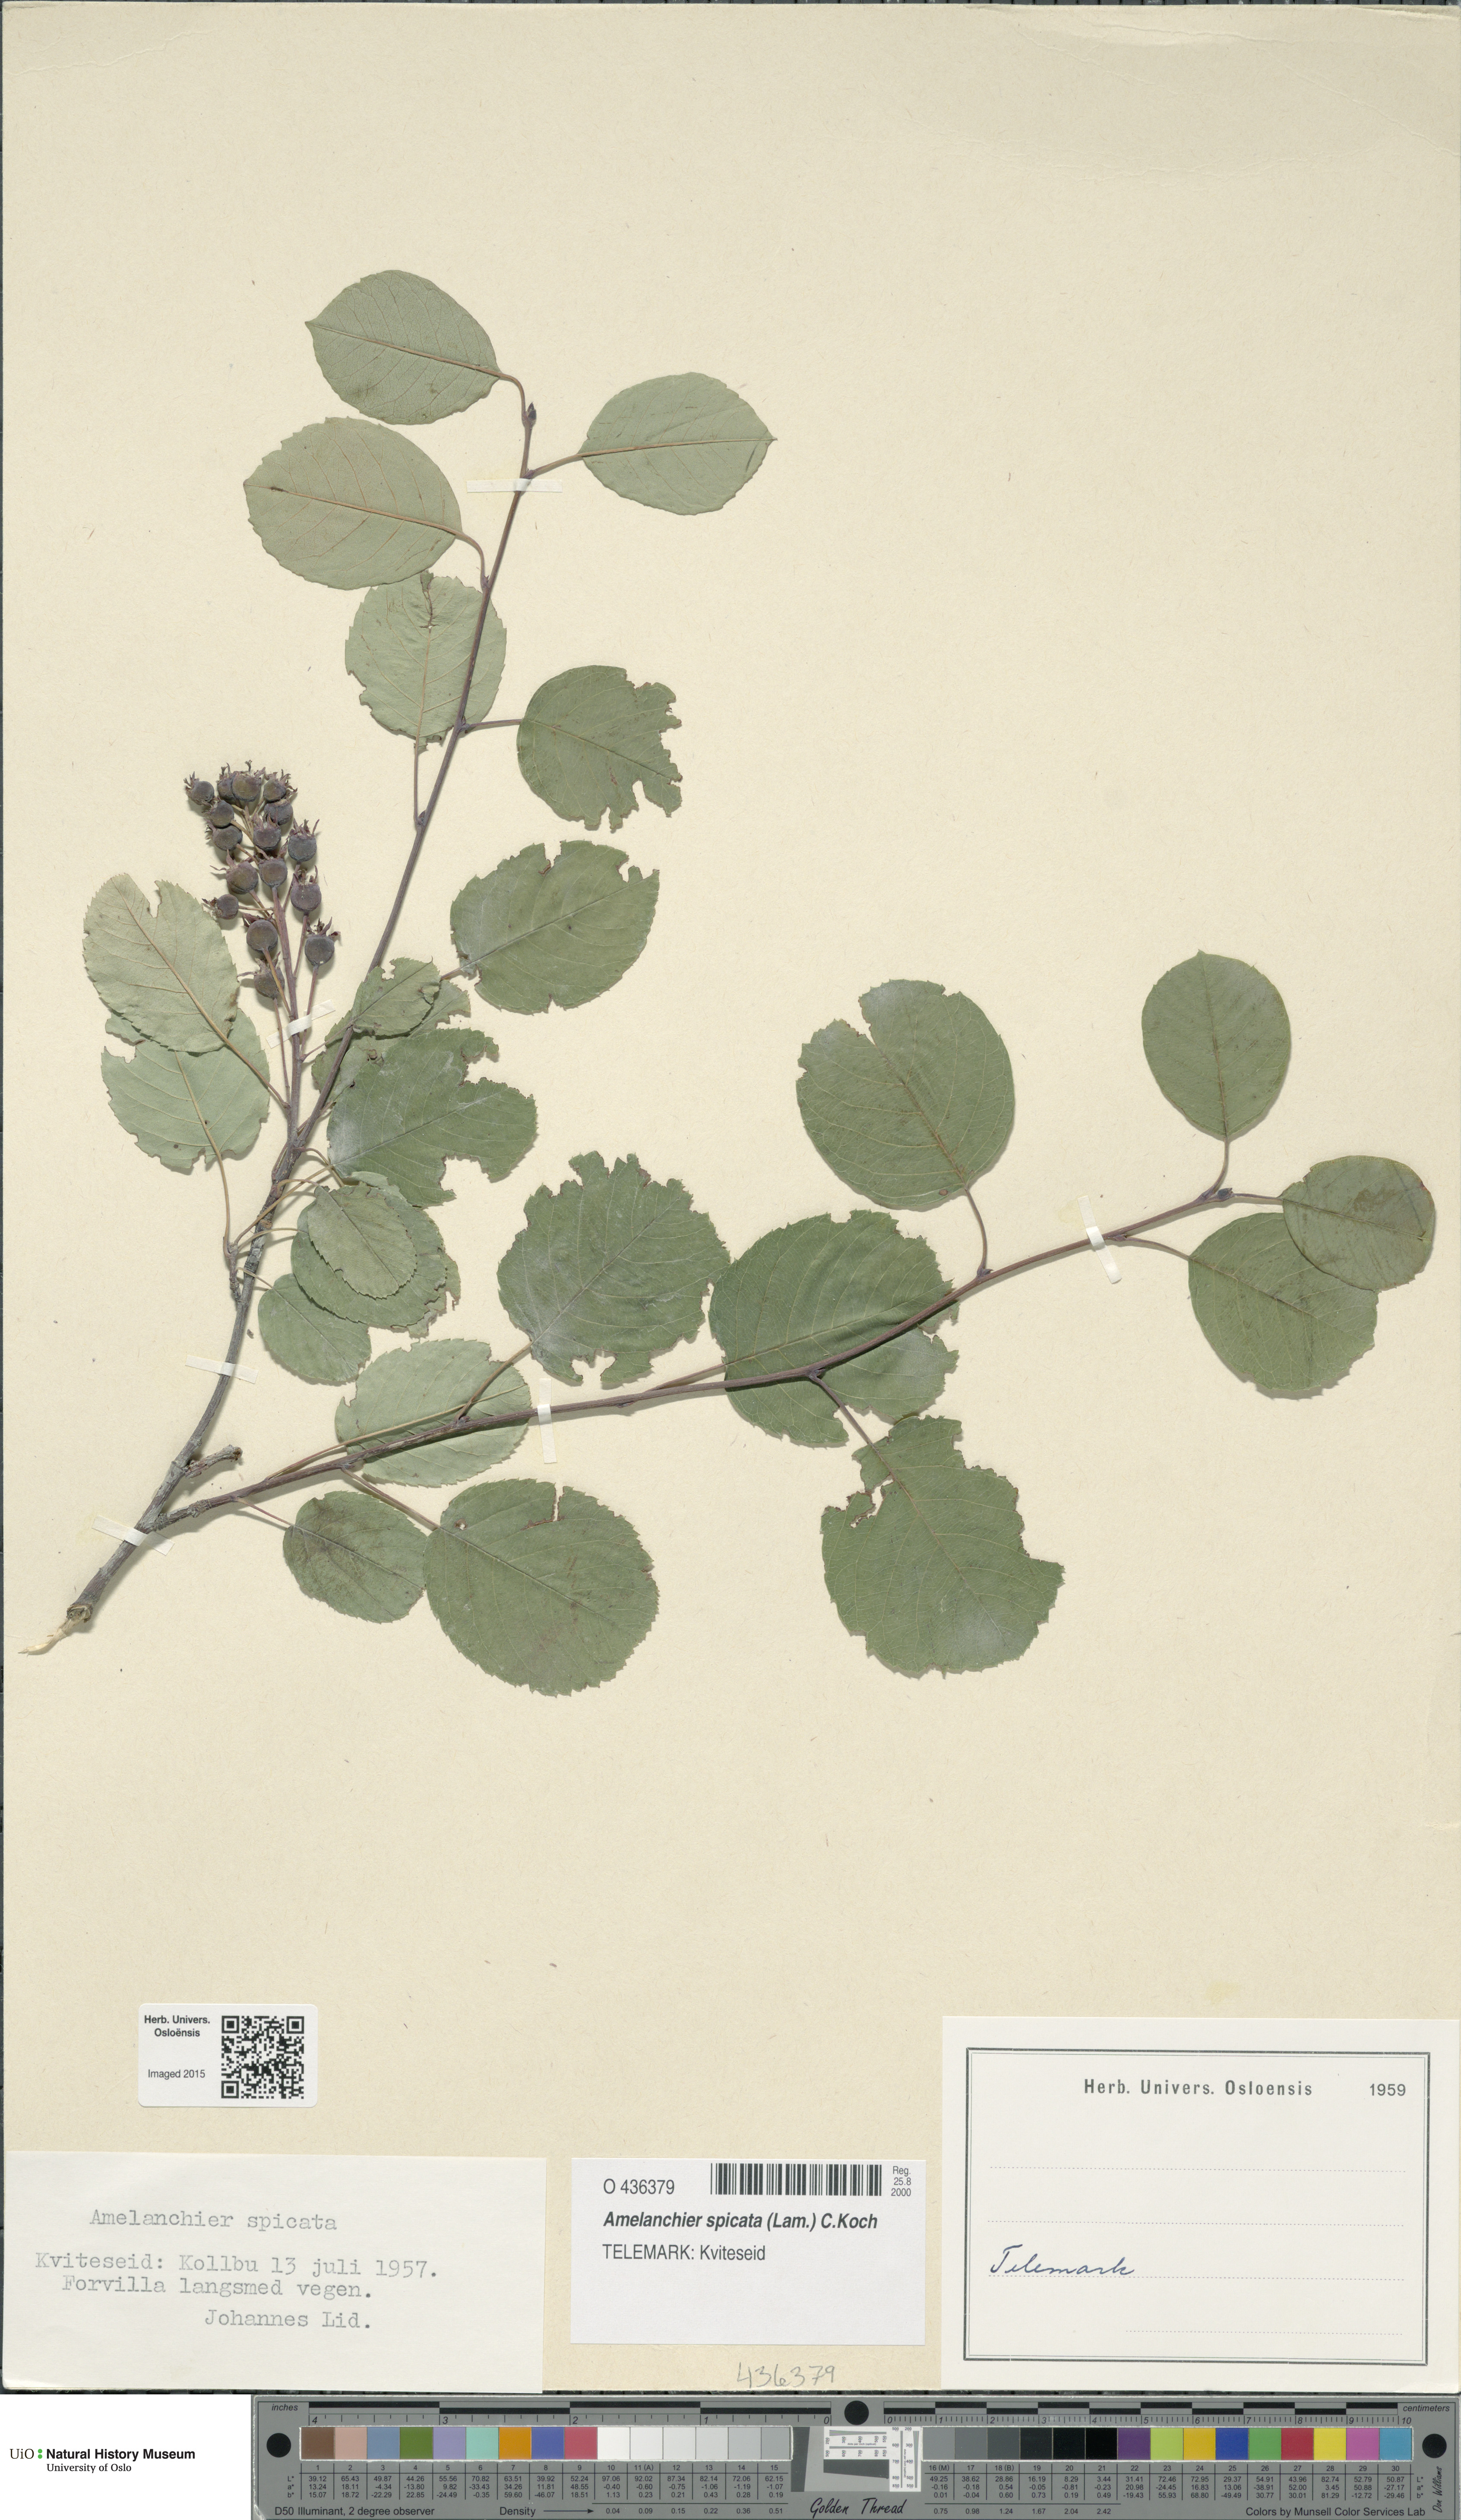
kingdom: Plantae
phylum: Tracheophyta
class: Magnoliopsida
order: Rosales
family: Rosaceae
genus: Amelanchier
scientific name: Amelanchier humilis
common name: Low juneberry
